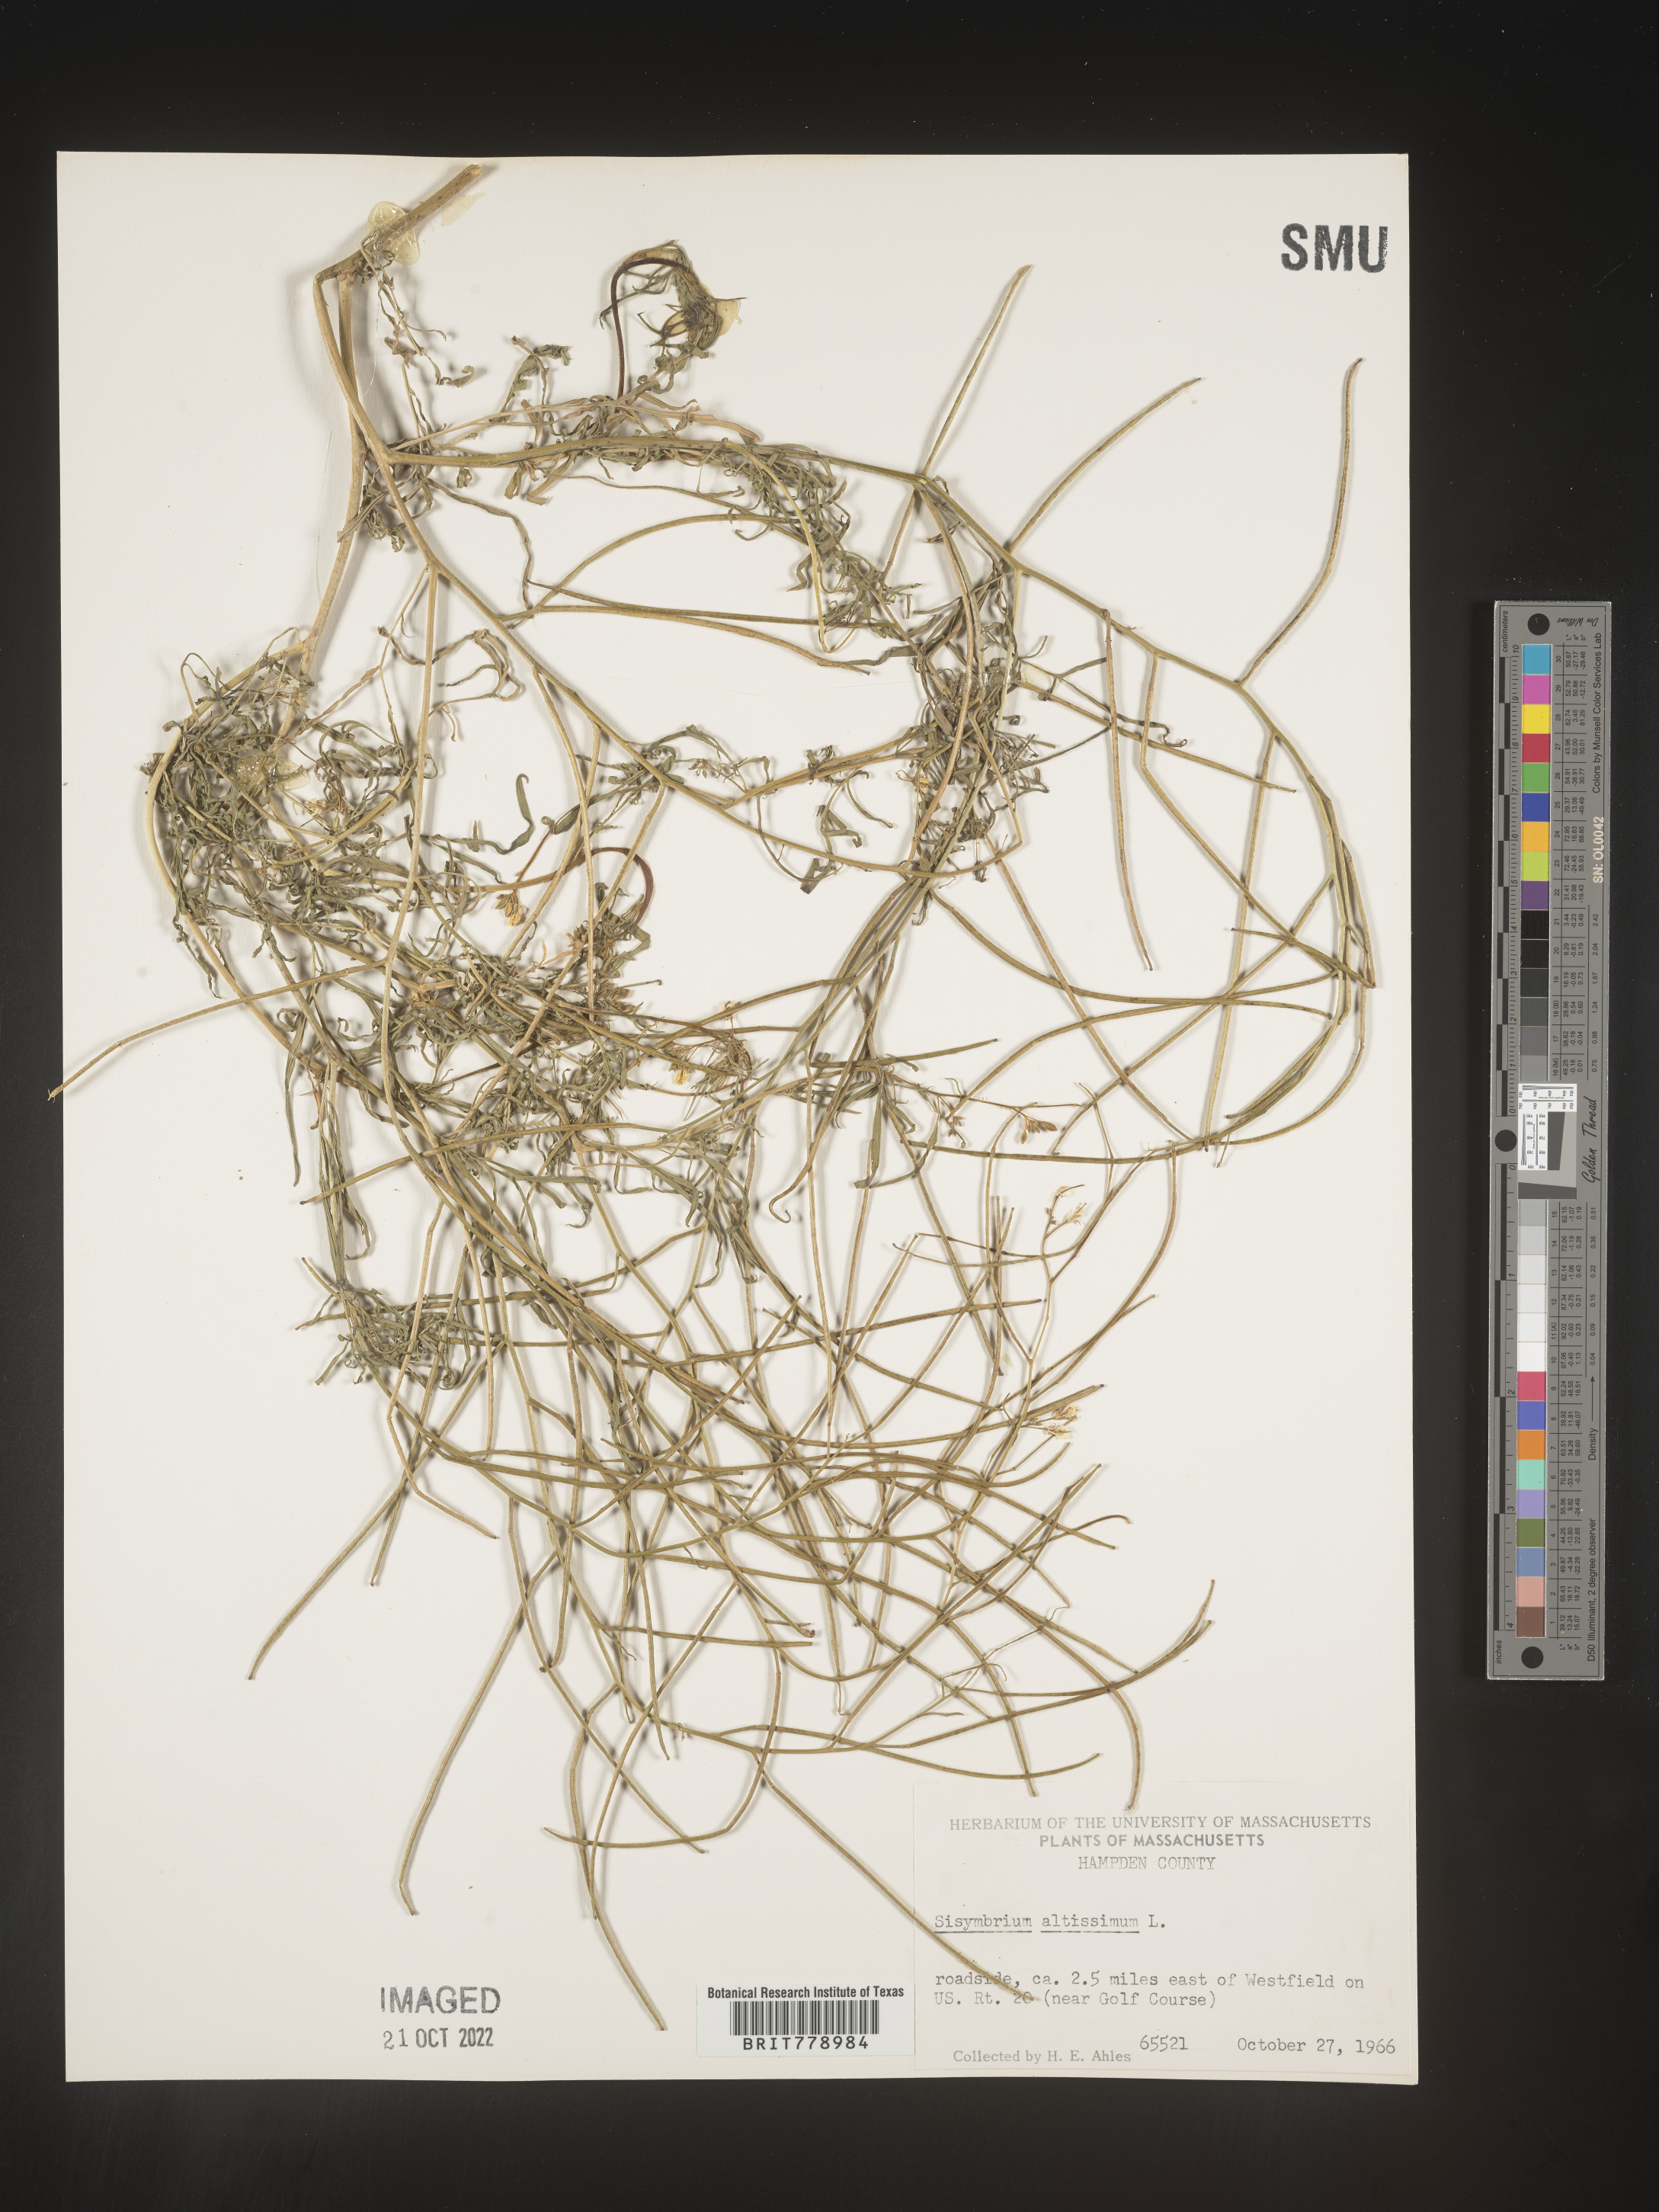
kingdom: Plantae
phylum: Tracheophyta
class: Magnoliopsida
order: Brassicales
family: Brassicaceae
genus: Sisymbrium
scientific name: Sisymbrium altissimum
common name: Tall rocket
